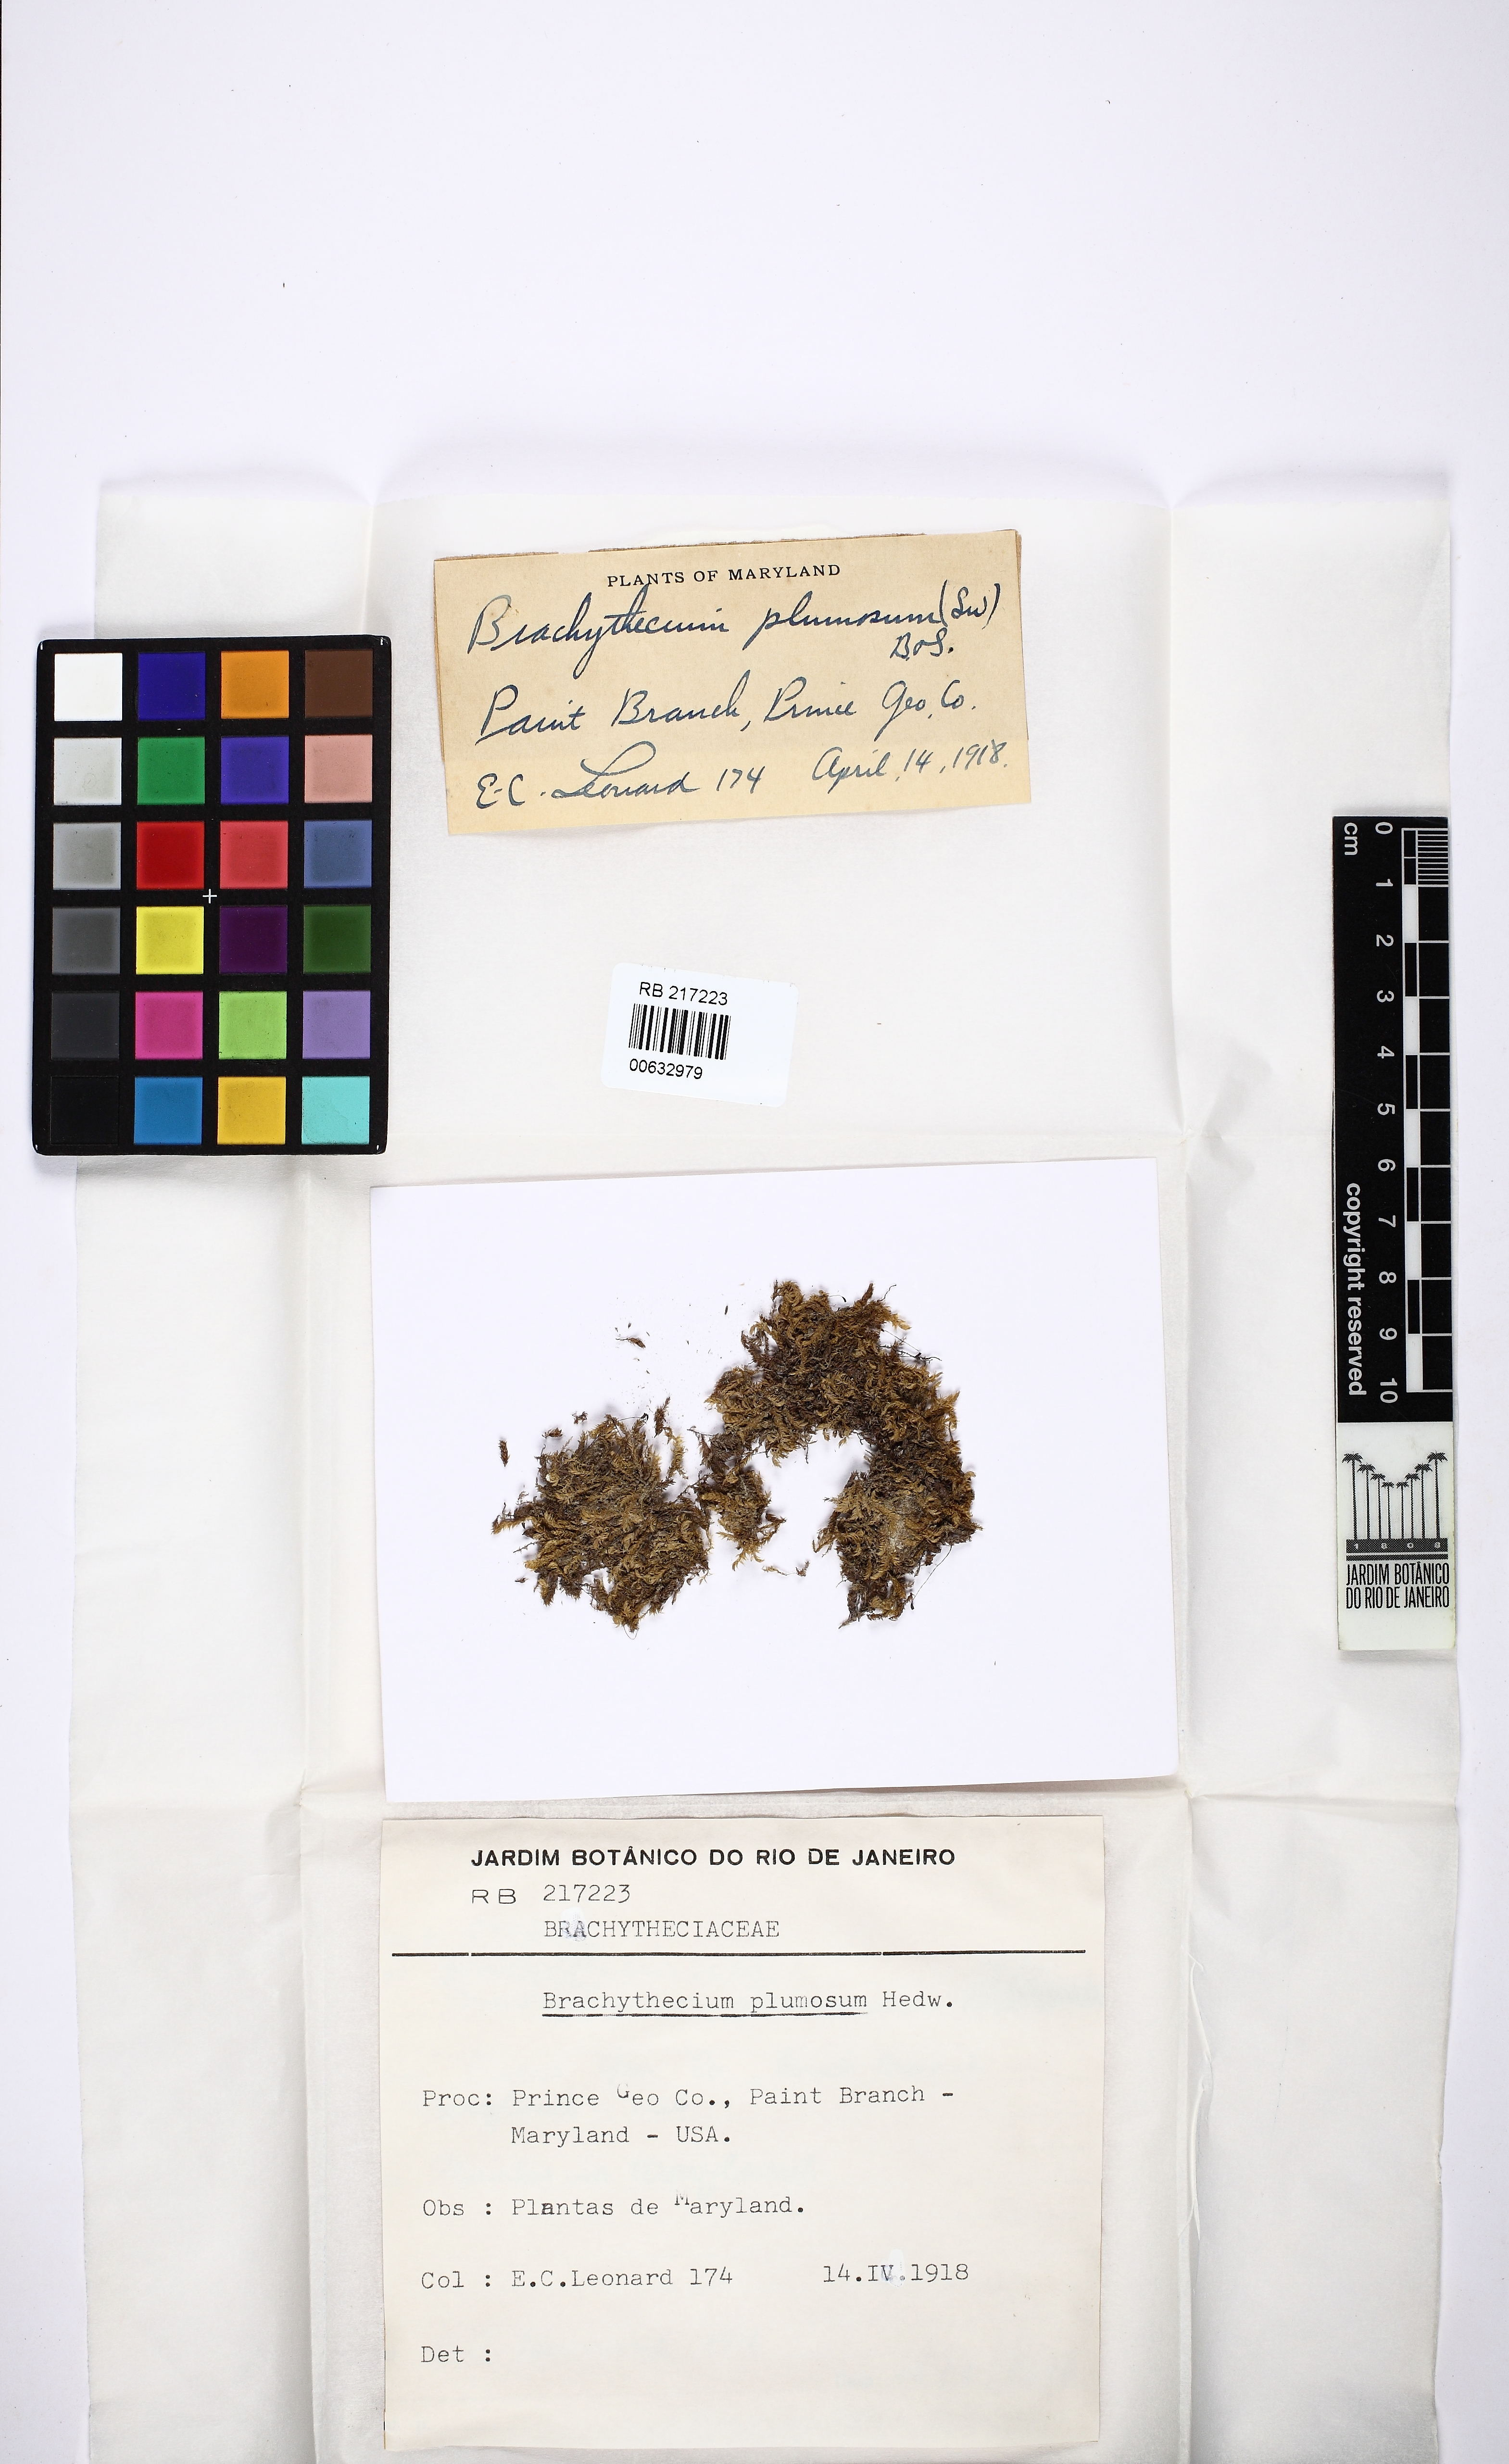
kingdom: Plantae
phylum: Bryophyta
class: Bryopsida
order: Hypnales
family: Brachytheciaceae
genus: Sciuro-hypnum
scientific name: Sciuro-hypnum plumosum
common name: Rusty feather-moss
